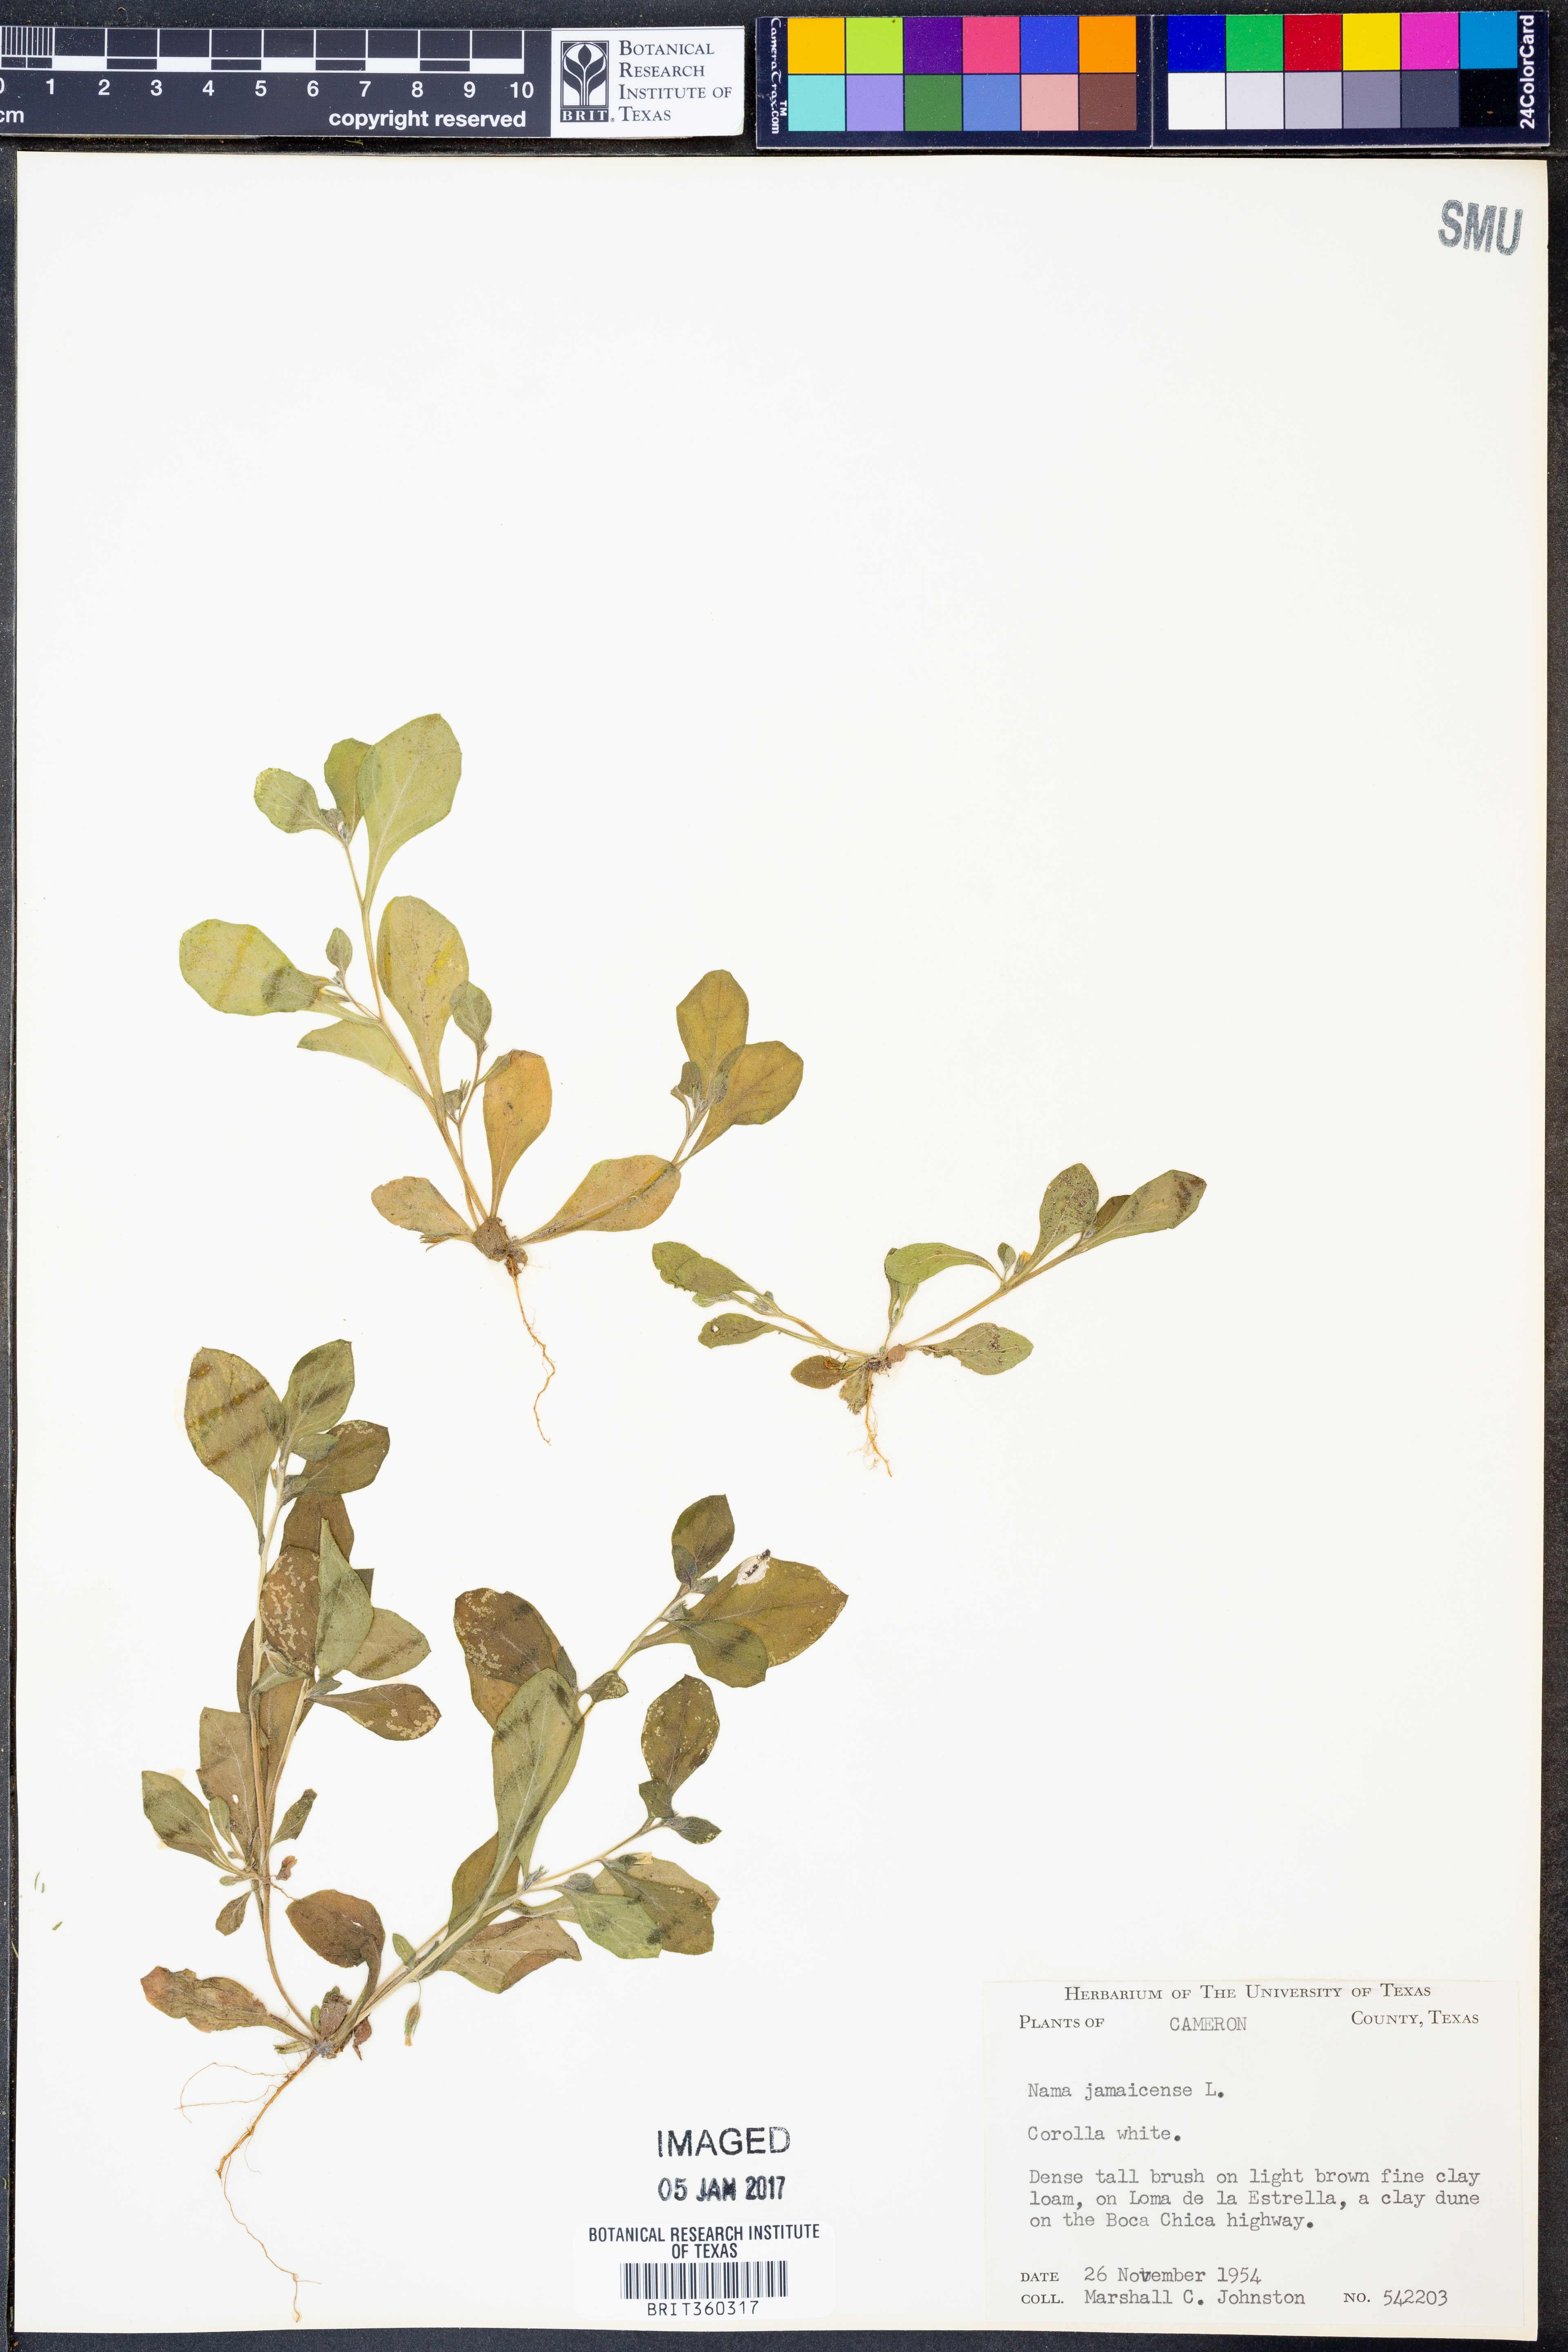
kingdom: Plantae
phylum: Tracheophyta
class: Magnoliopsida
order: Boraginales
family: Namaceae
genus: Nama
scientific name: Nama jamaicense
